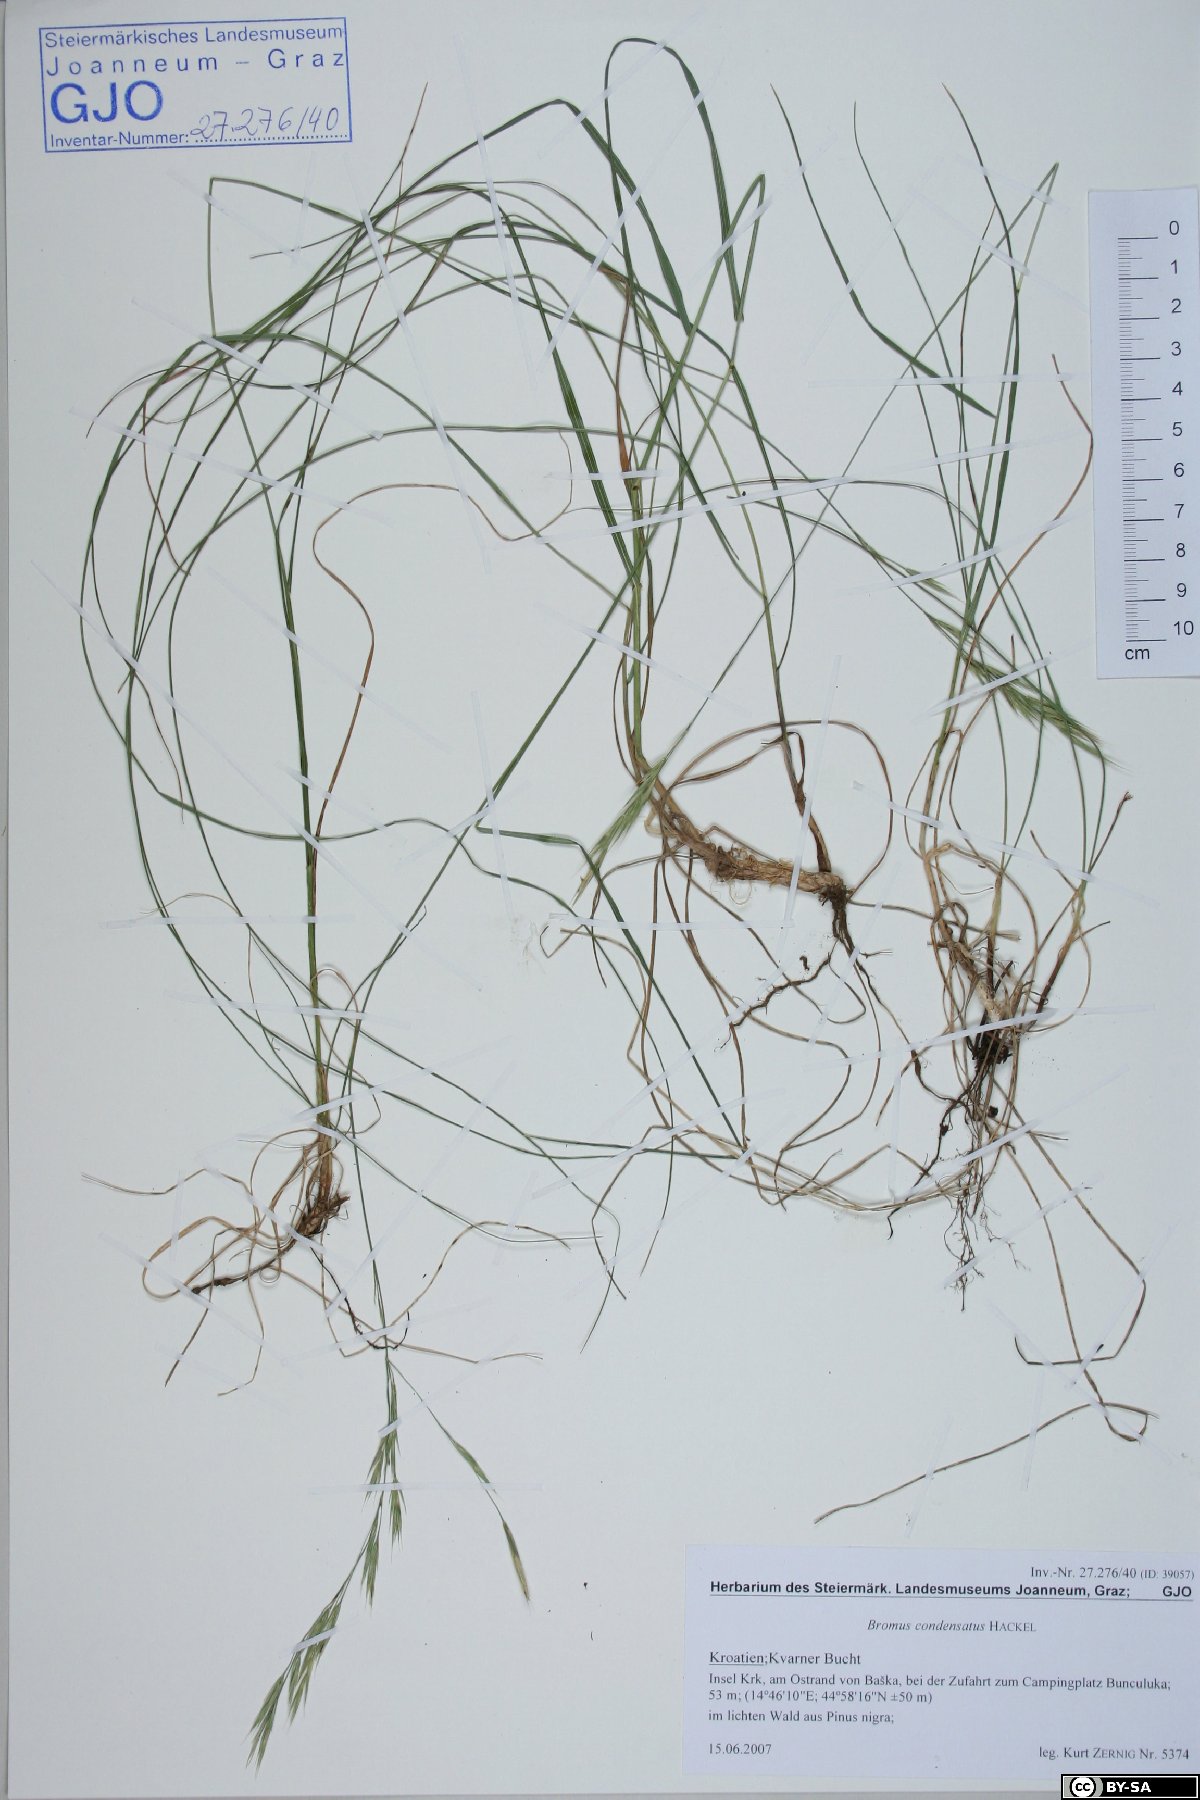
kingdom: Plantae
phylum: Tracheophyta
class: Liliopsida
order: Poales
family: Poaceae
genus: Bromus
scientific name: Bromus condensatus
